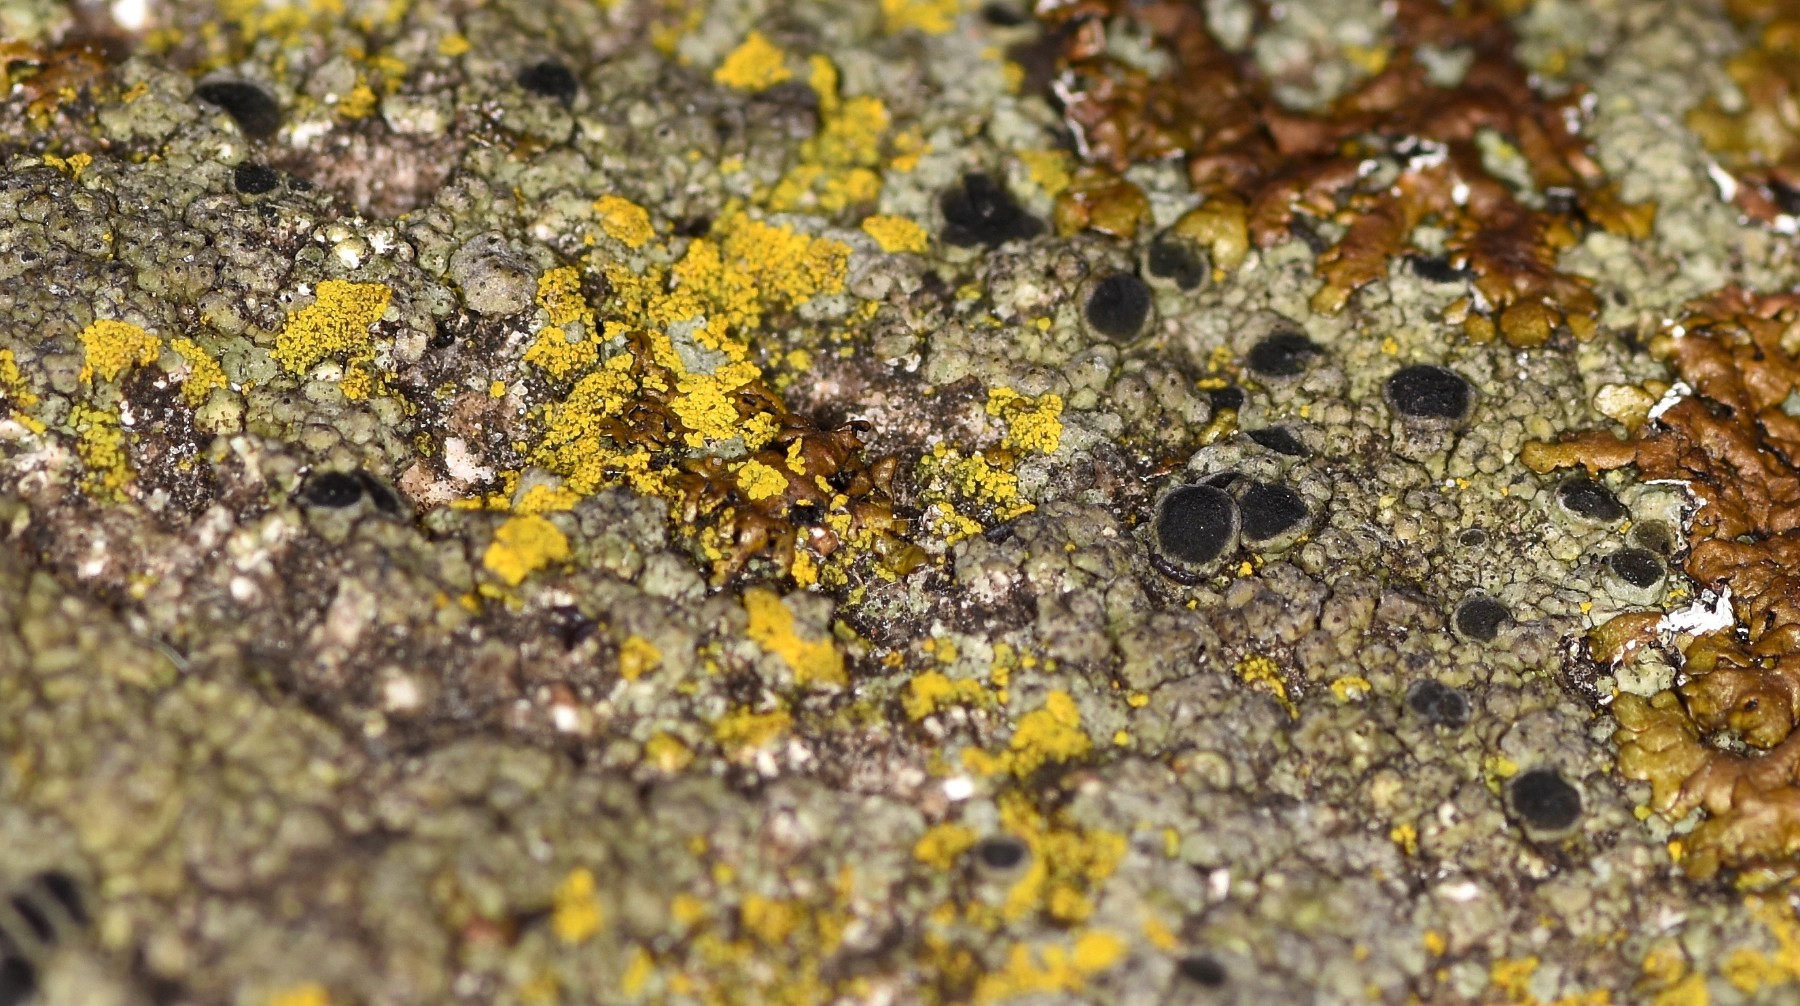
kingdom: Fungi
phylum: Ascomycota
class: Lecanoromycetes
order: Lecanorales
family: Parmeliaceae
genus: Protoparmelia
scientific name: Protoparmelia badia
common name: mørk kantskivelav
